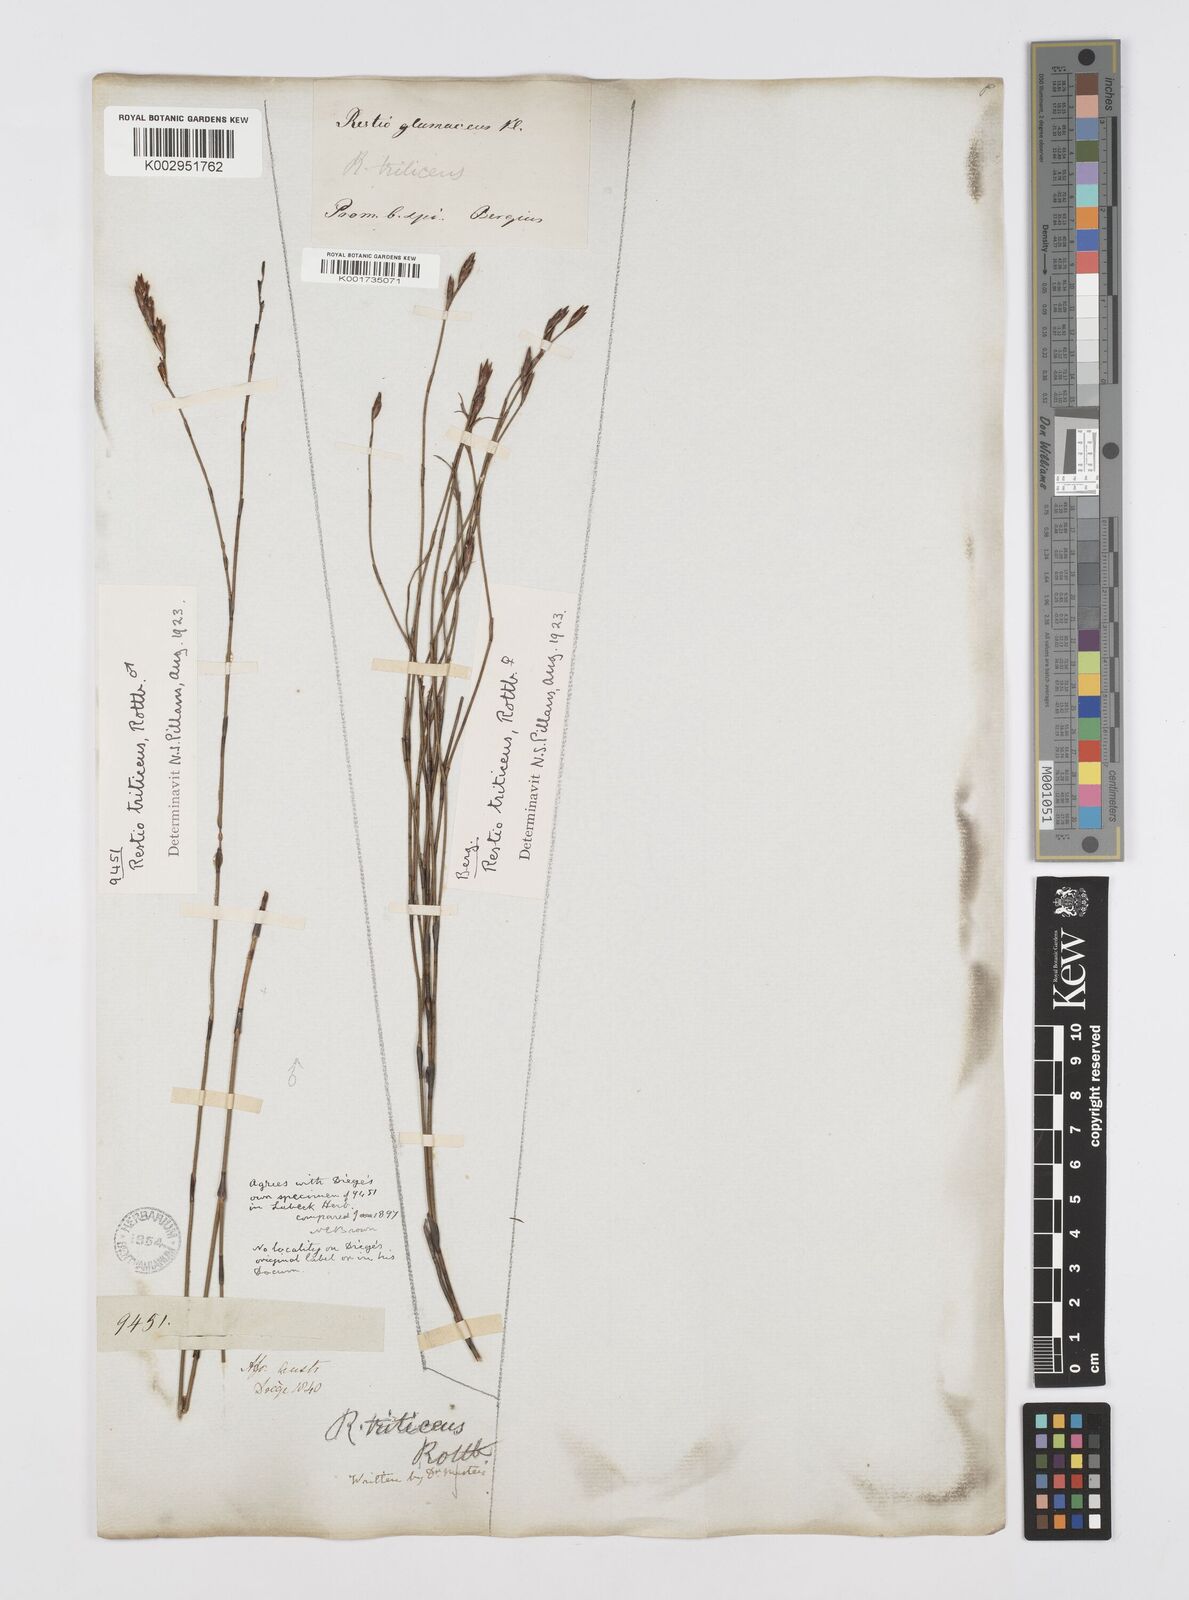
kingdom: Plantae
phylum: Tracheophyta
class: Liliopsida
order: Poales
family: Restionaceae
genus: Restio
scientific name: Restio triticeus
